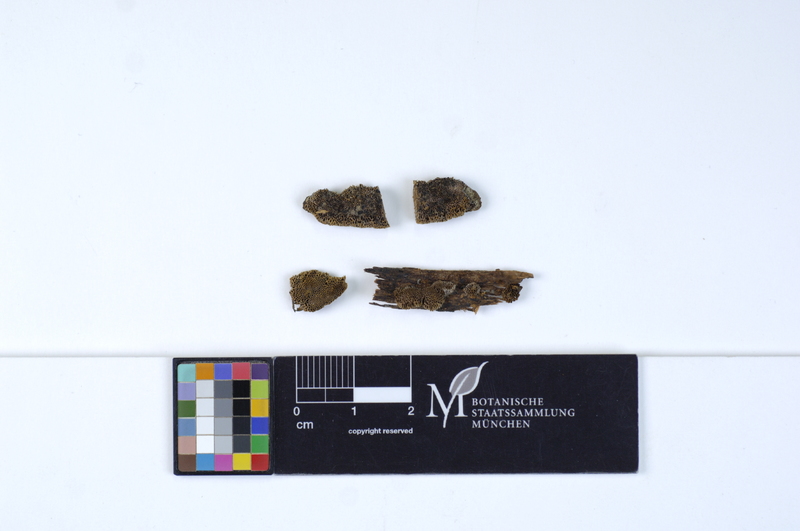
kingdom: Plantae
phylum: Tracheophyta
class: Pinopsida
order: Pinales
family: Pinaceae
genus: Picea
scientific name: Picea
